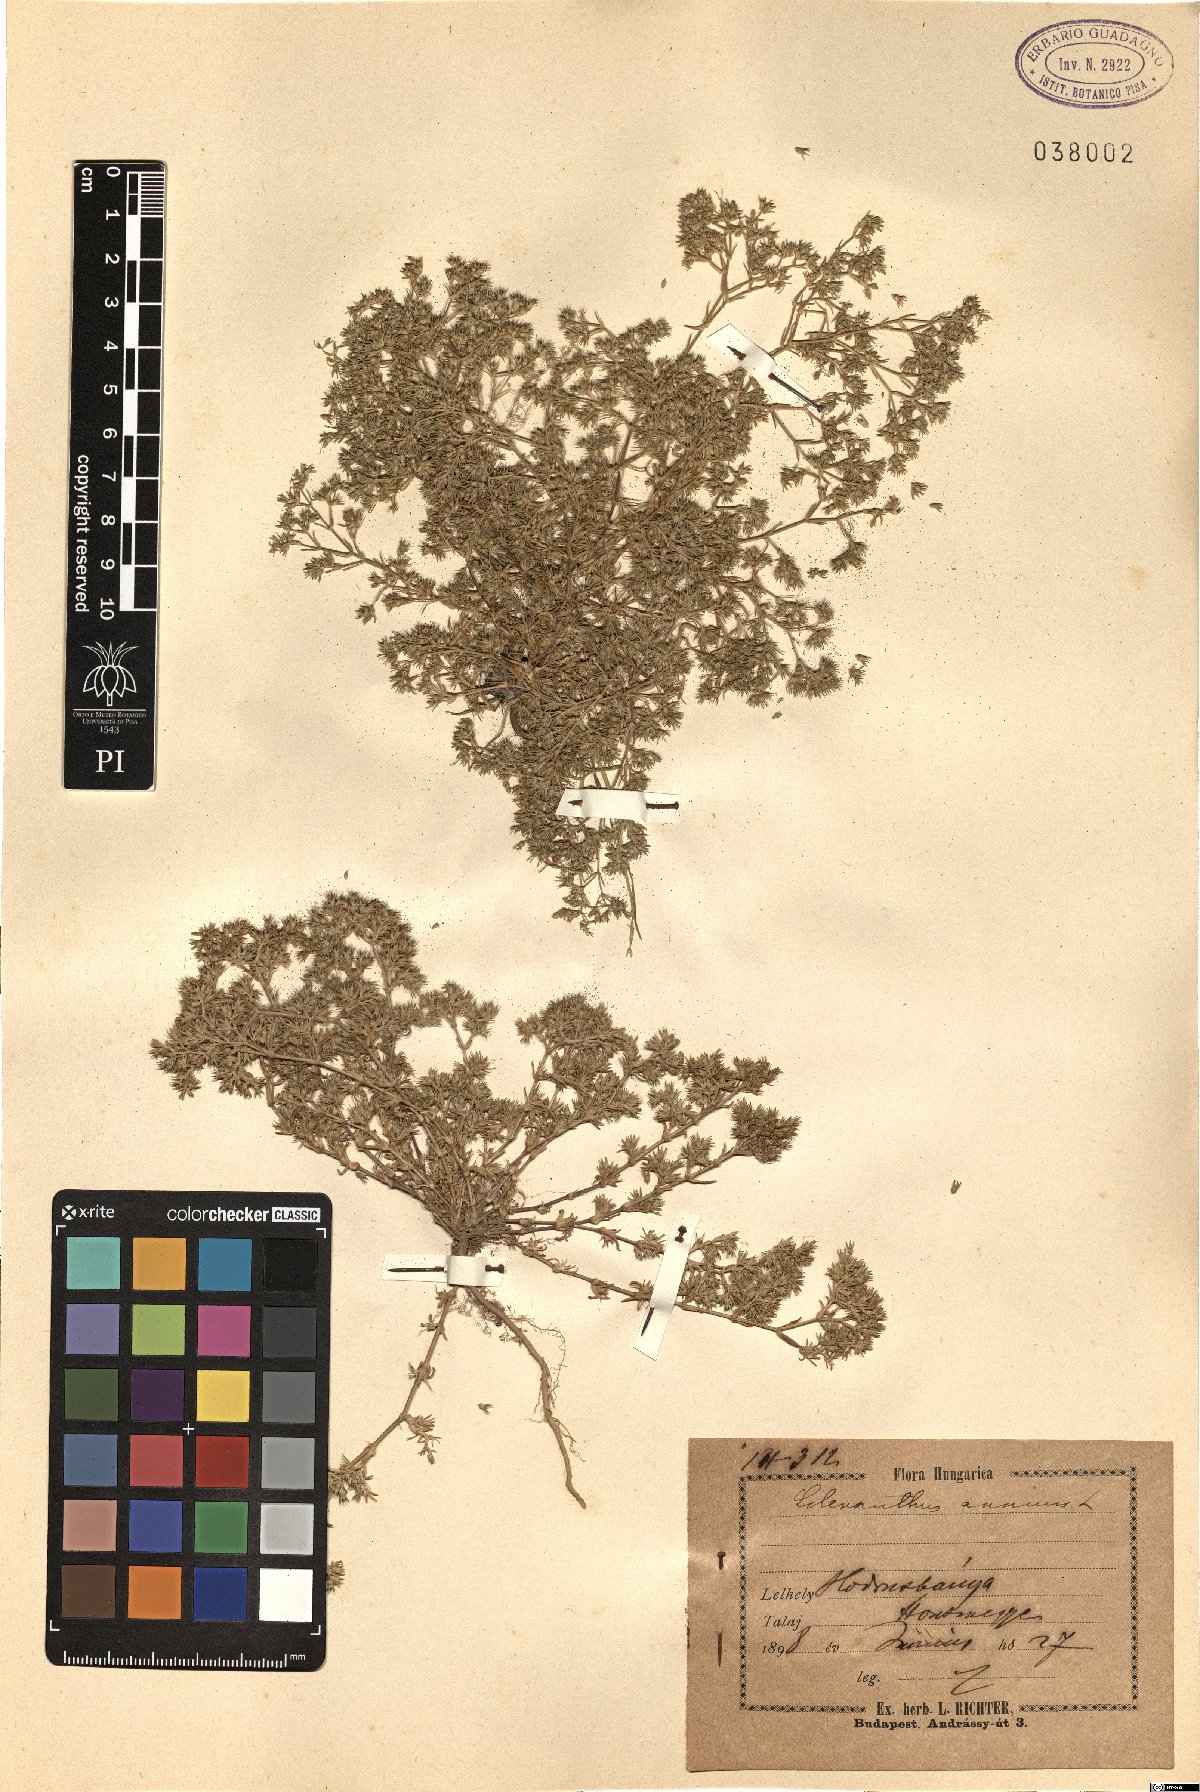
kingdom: Plantae
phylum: Tracheophyta
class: Magnoliopsida
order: Caryophyllales
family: Caryophyllaceae
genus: Scleranthus
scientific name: Scleranthus annuus
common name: Annual knawel
